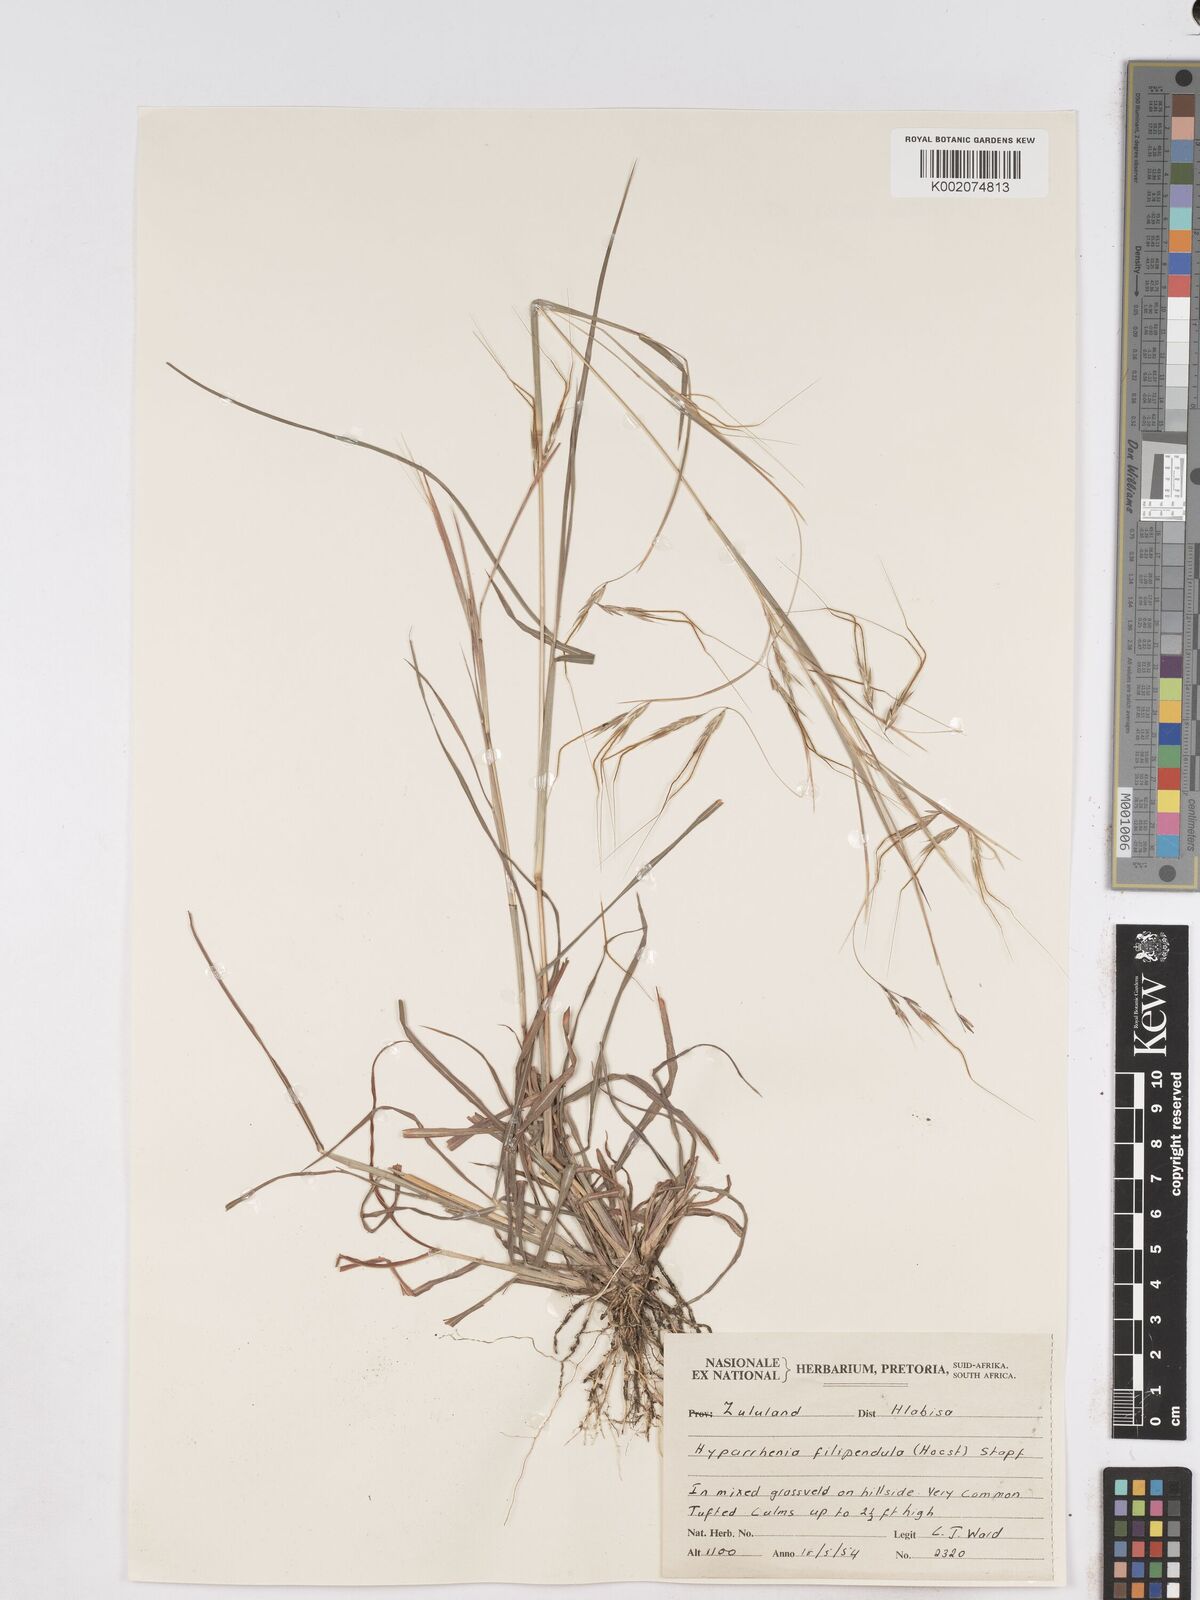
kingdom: Plantae
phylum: Tracheophyta
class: Liliopsida
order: Poales
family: Poaceae
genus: Hyparrhenia
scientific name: Hyparrhenia filipendula
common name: Tambookie grass
